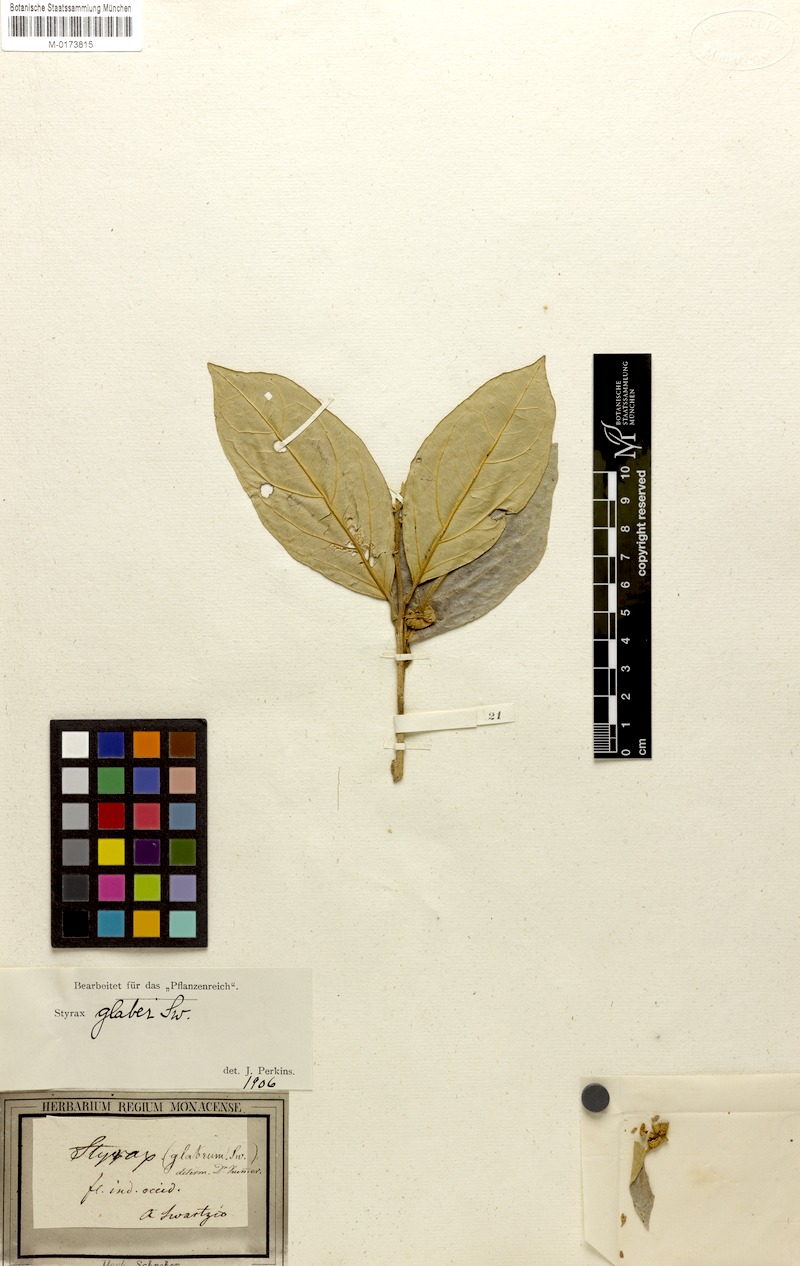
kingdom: Plantae
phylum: Tracheophyta
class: Magnoliopsida
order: Ericales
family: Styracaceae
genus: Styrax
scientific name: Styrax glaber
